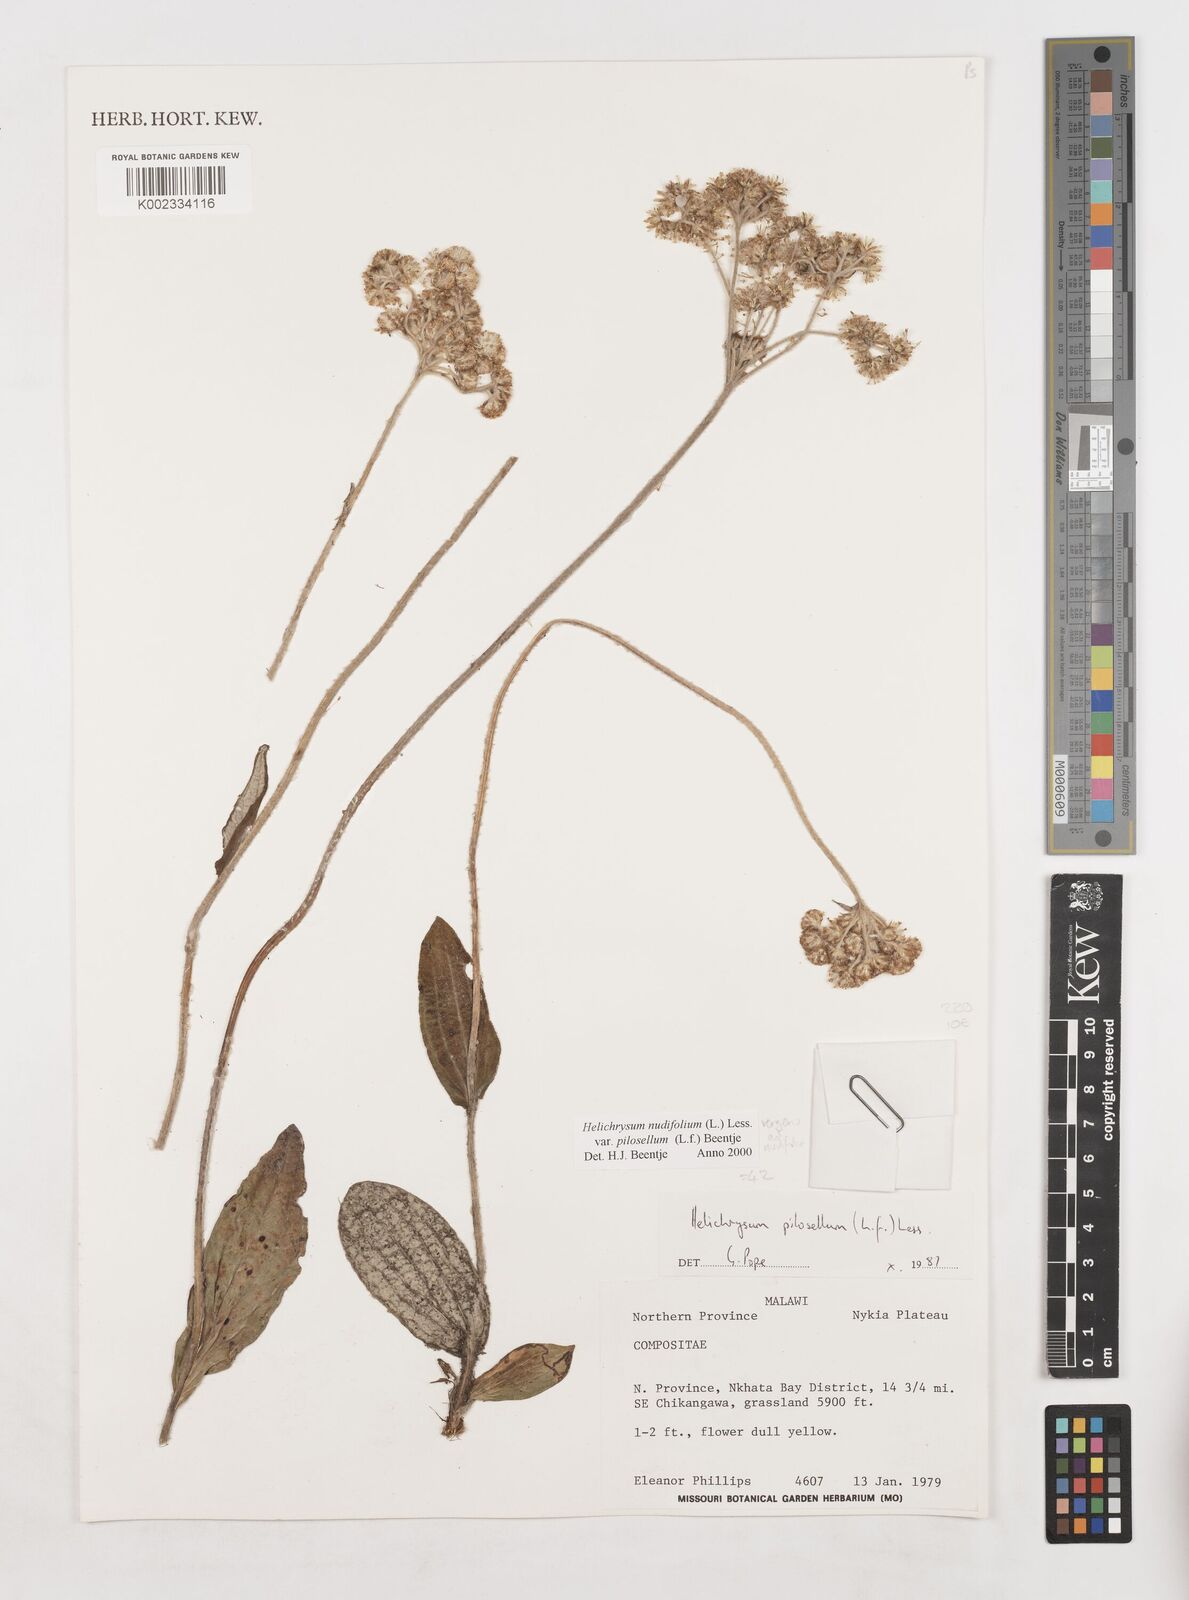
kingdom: Plantae
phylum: Tracheophyta
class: Magnoliopsida
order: Asterales
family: Asteraceae
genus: Helichrysum
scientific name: Helichrysum nudifolium
